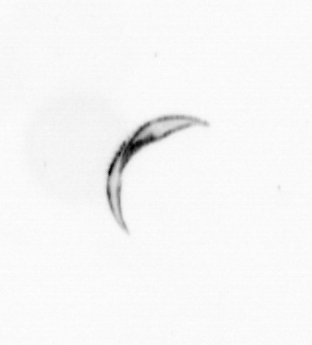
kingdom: Chromista
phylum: Ochrophyta
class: Bacillariophyceae
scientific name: Bacillariophyceae
